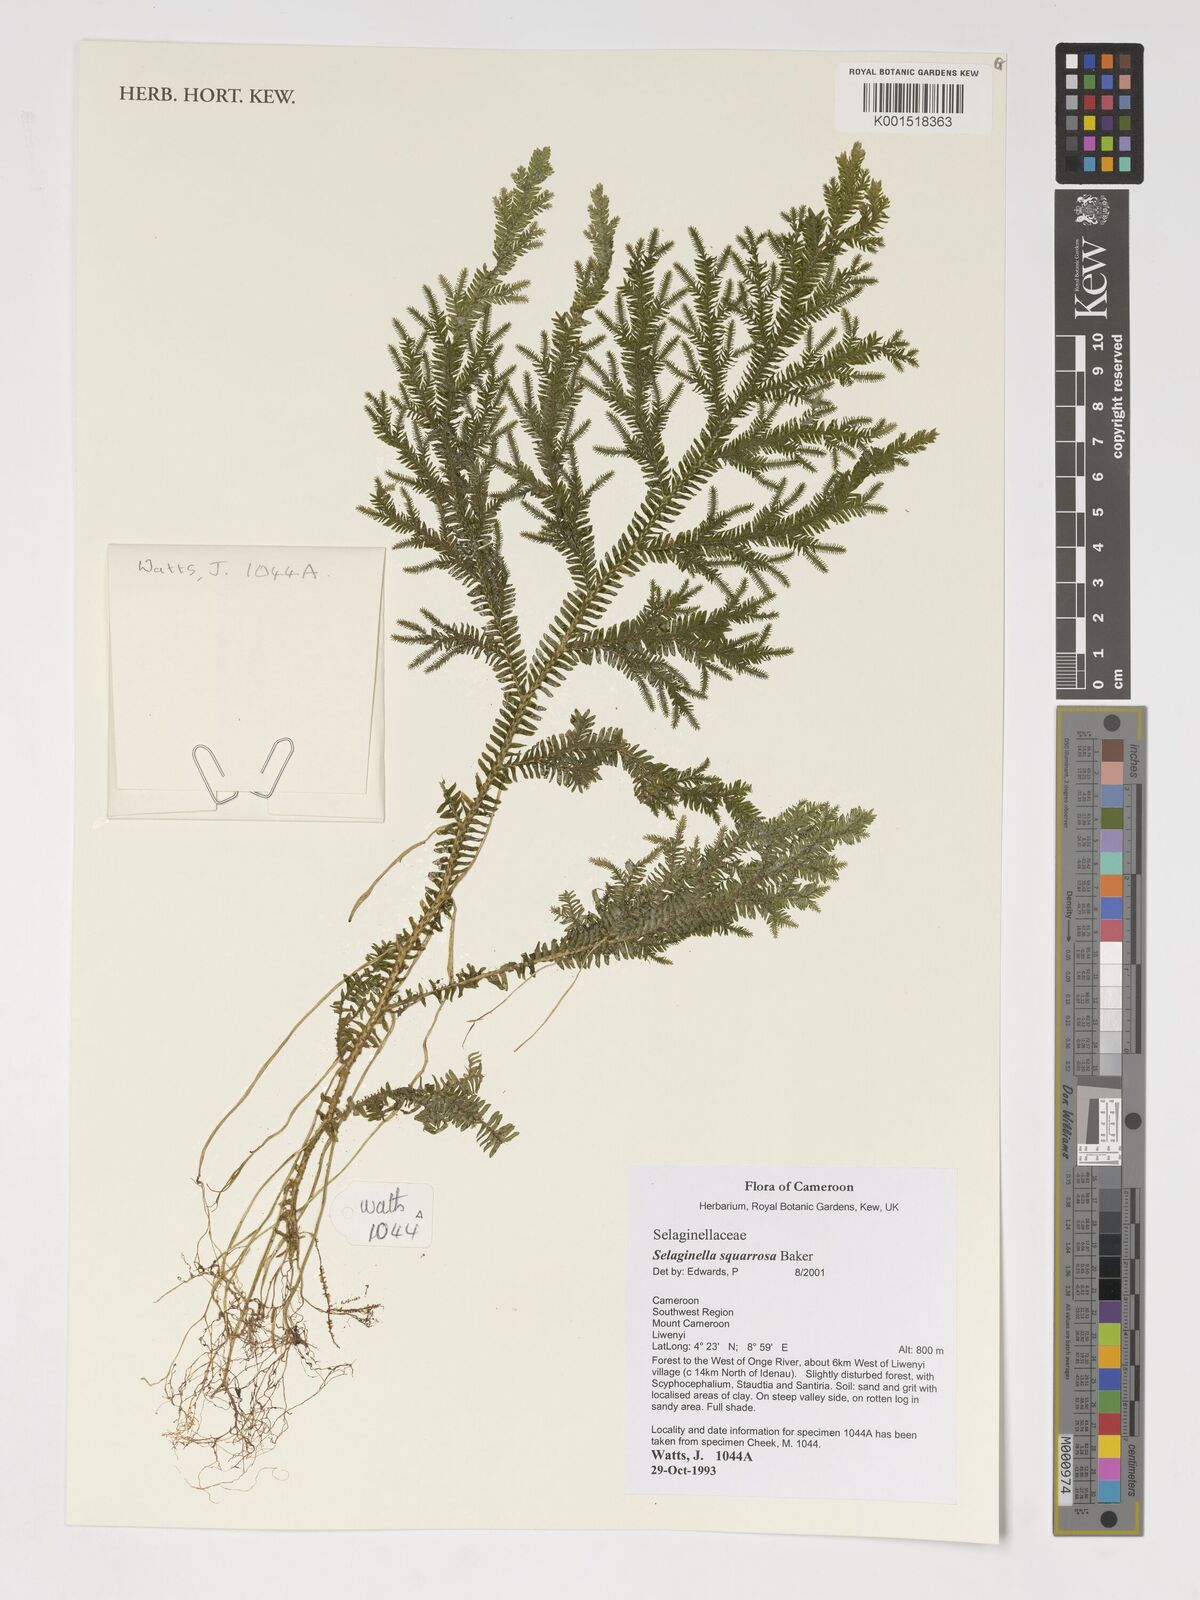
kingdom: Plantae
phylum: Tracheophyta
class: Lycopodiopsida
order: Selaginellales
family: Selaginellaceae
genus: Selaginella
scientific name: Selaginella squarrosa
